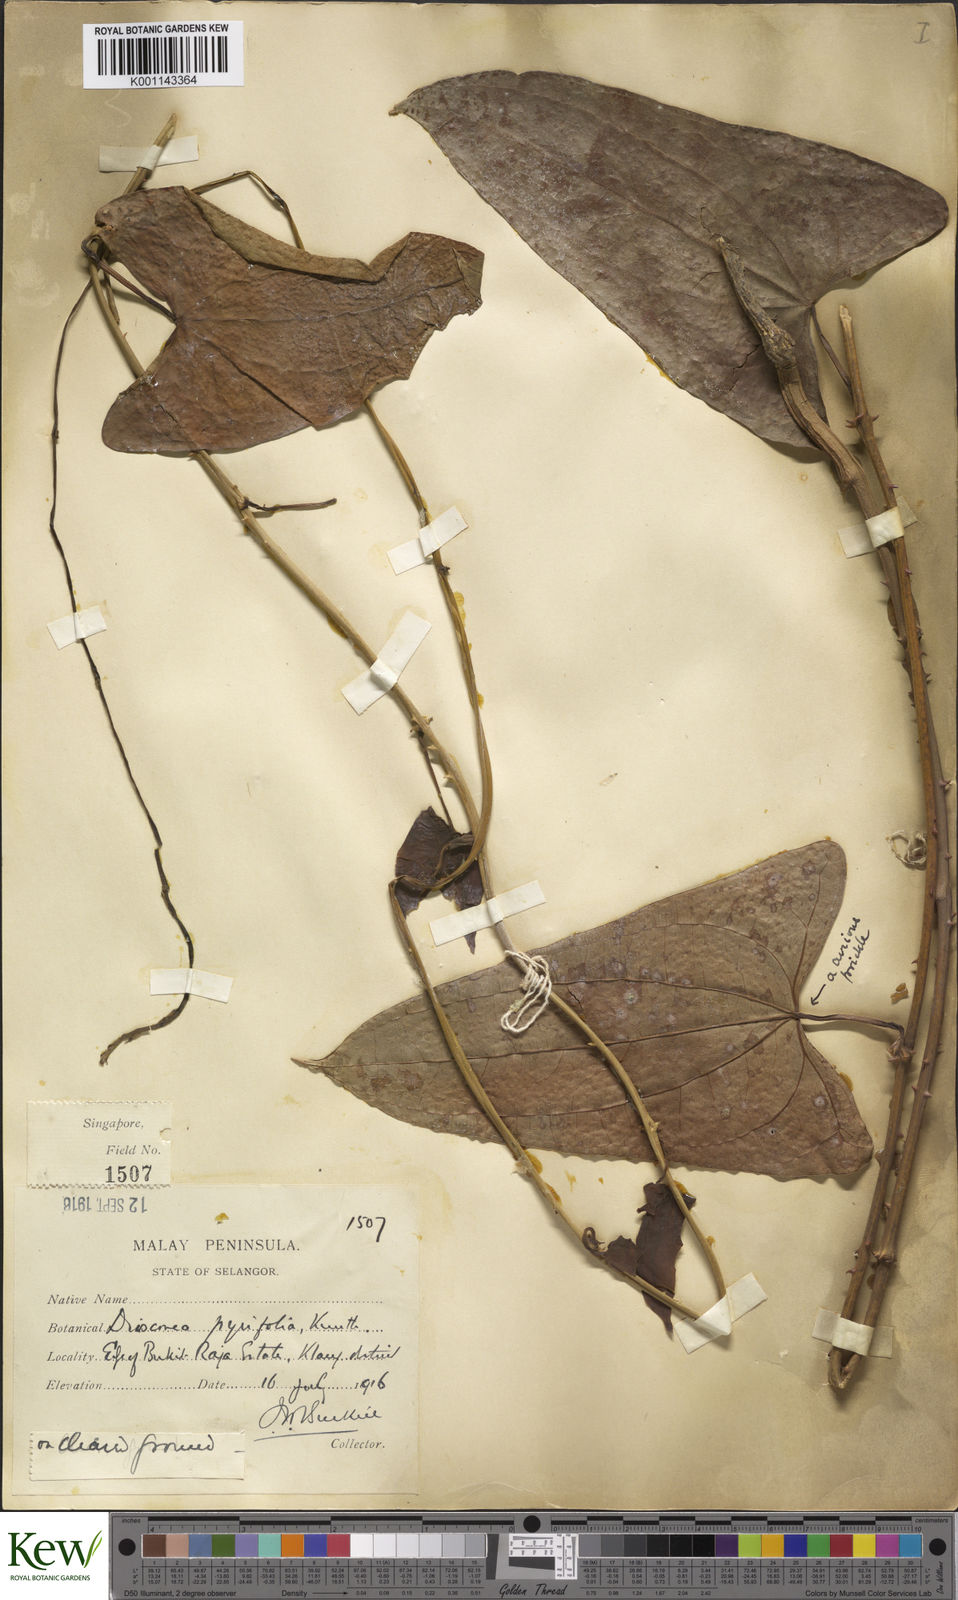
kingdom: Plantae
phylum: Tracheophyta
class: Liliopsida
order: Dioscoreales
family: Dioscoreaceae
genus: Dioscorea
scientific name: Dioscorea pyrifolia
